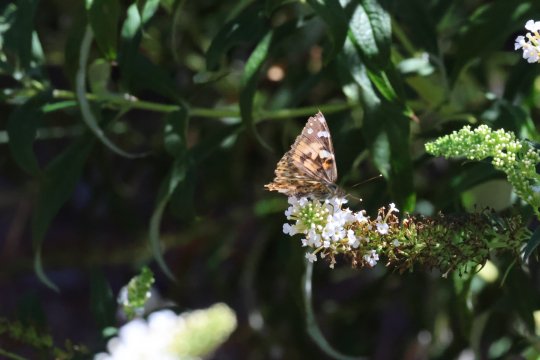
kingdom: Animalia
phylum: Arthropoda
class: Insecta
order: Lepidoptera
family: Nymphalidae
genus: Vanessa
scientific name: Vanessa cardui
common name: Painted Lady
